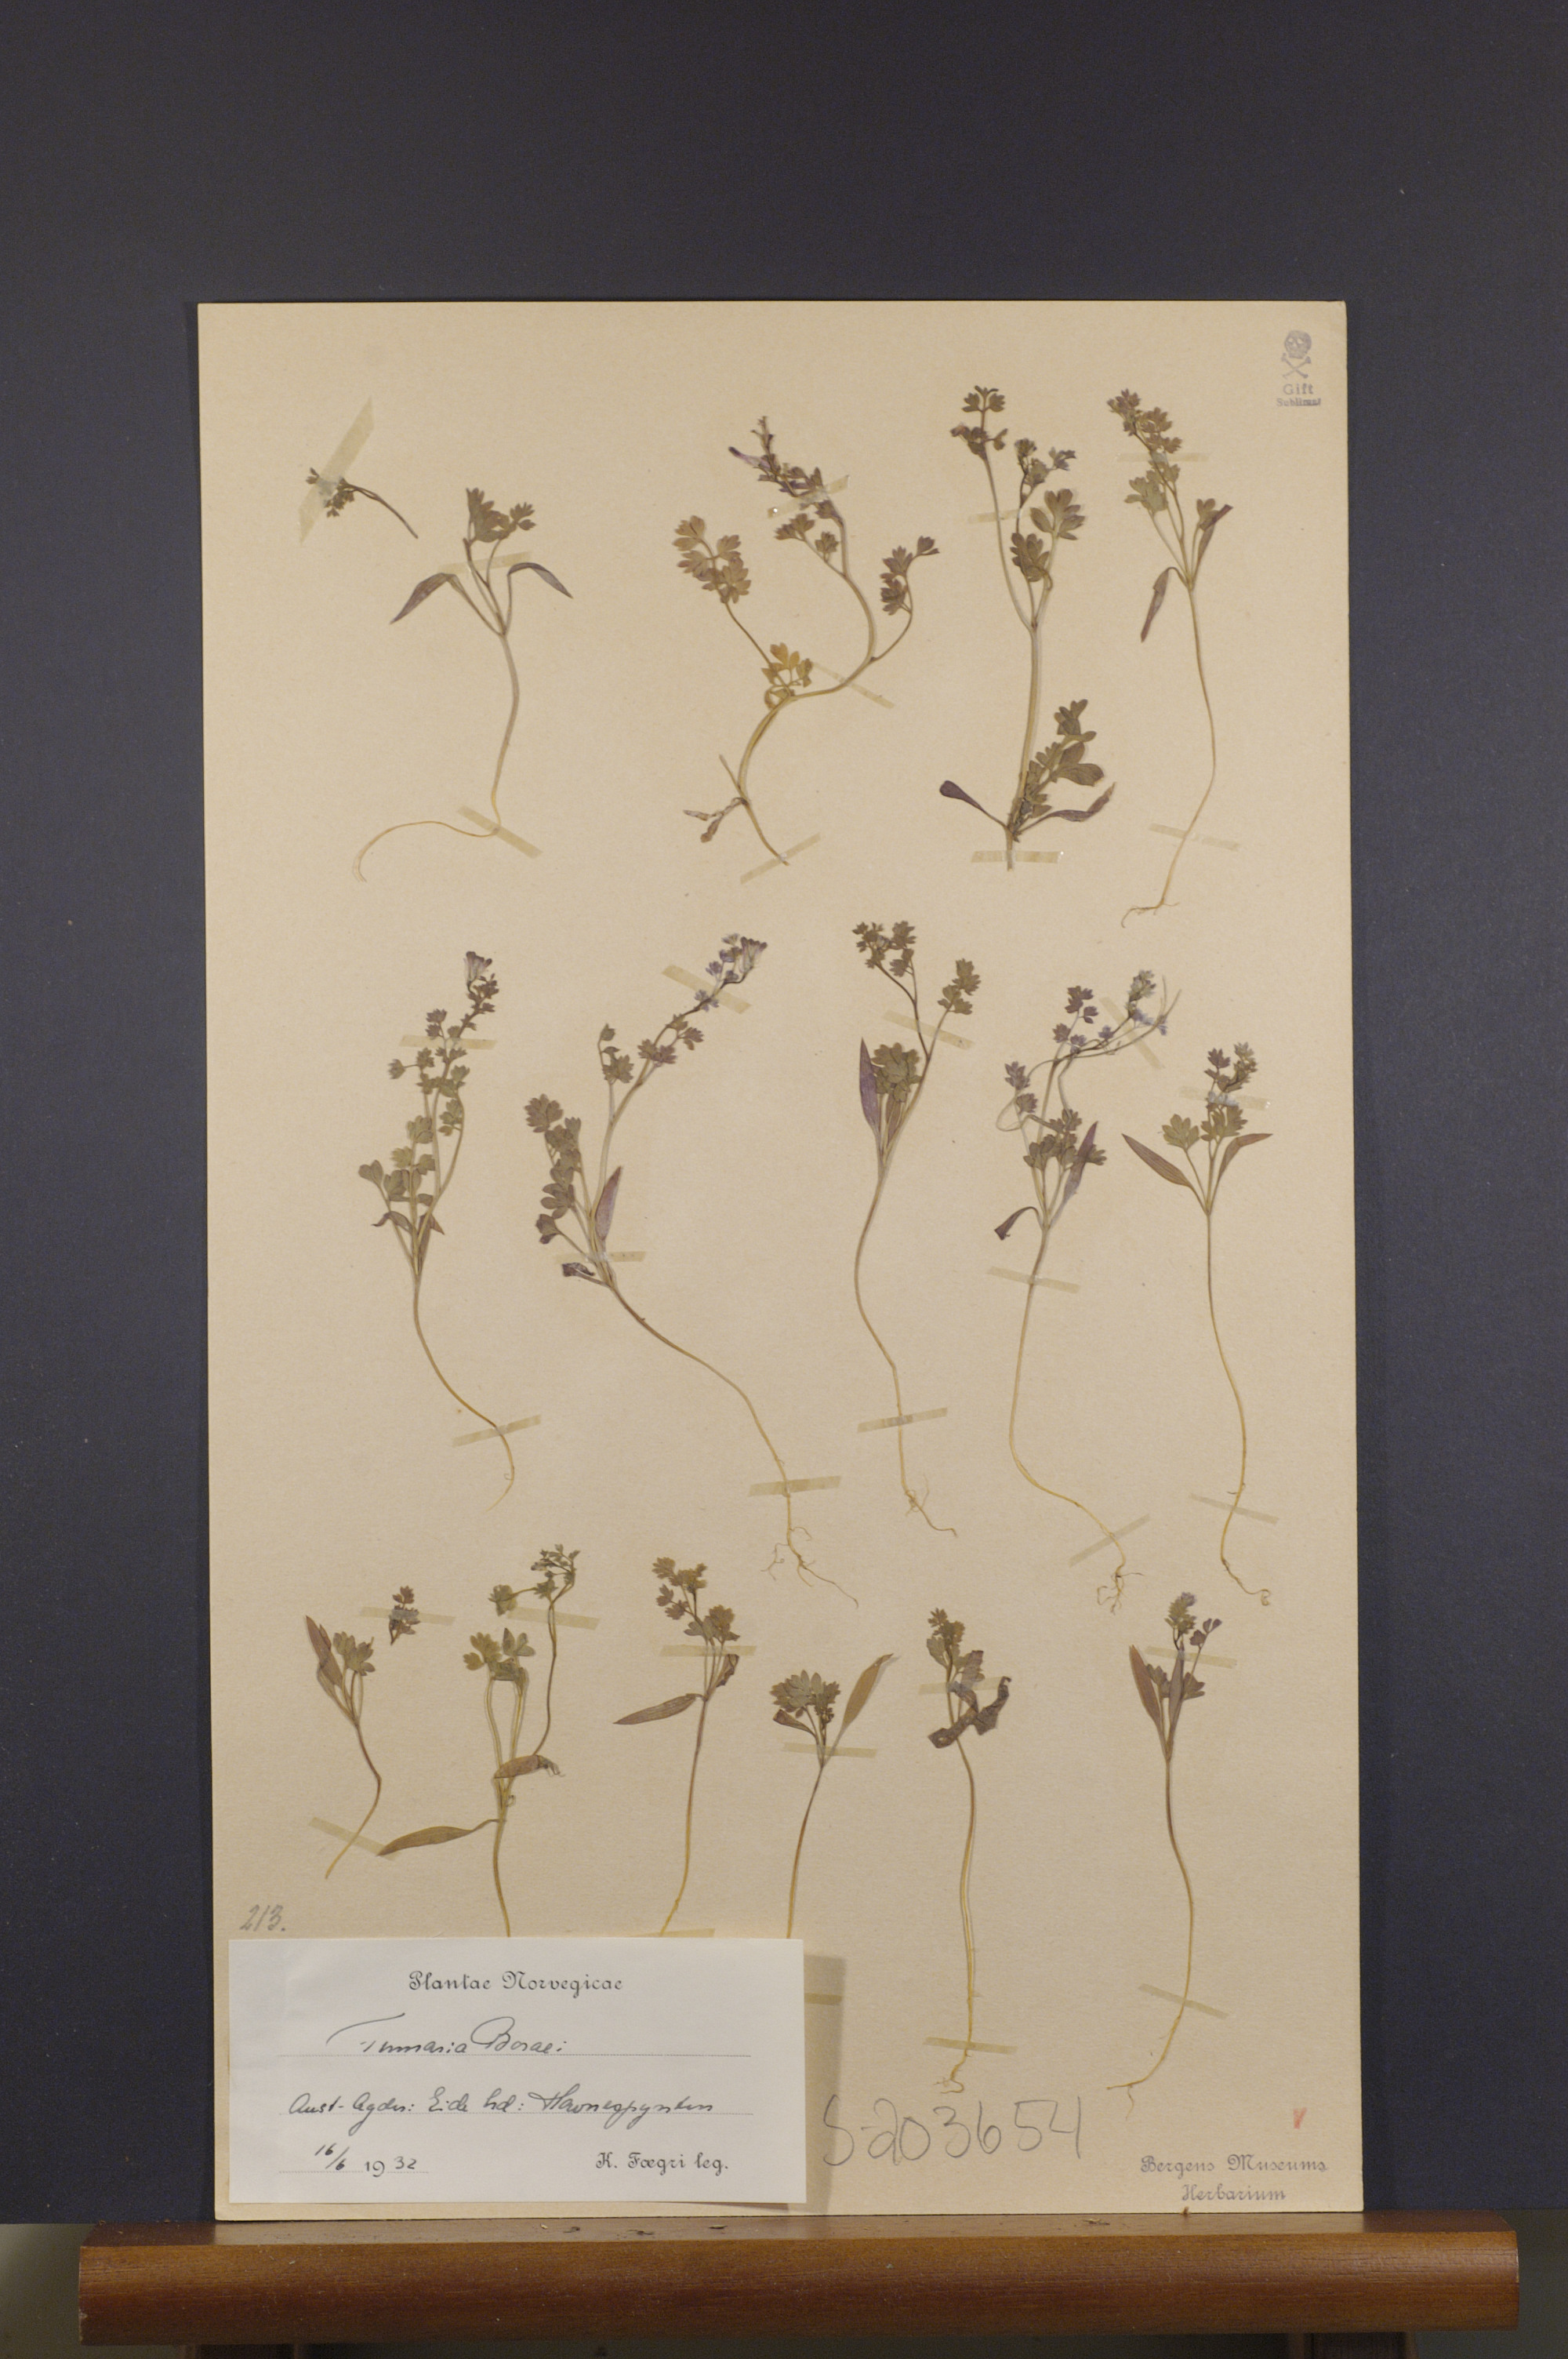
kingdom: Plantae
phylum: Tracheophyta
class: Magnoliopsida
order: Ranunculales
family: Papaveraceae
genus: Fumaria
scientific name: Fumaria muralis
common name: Common ramping-fumitory
